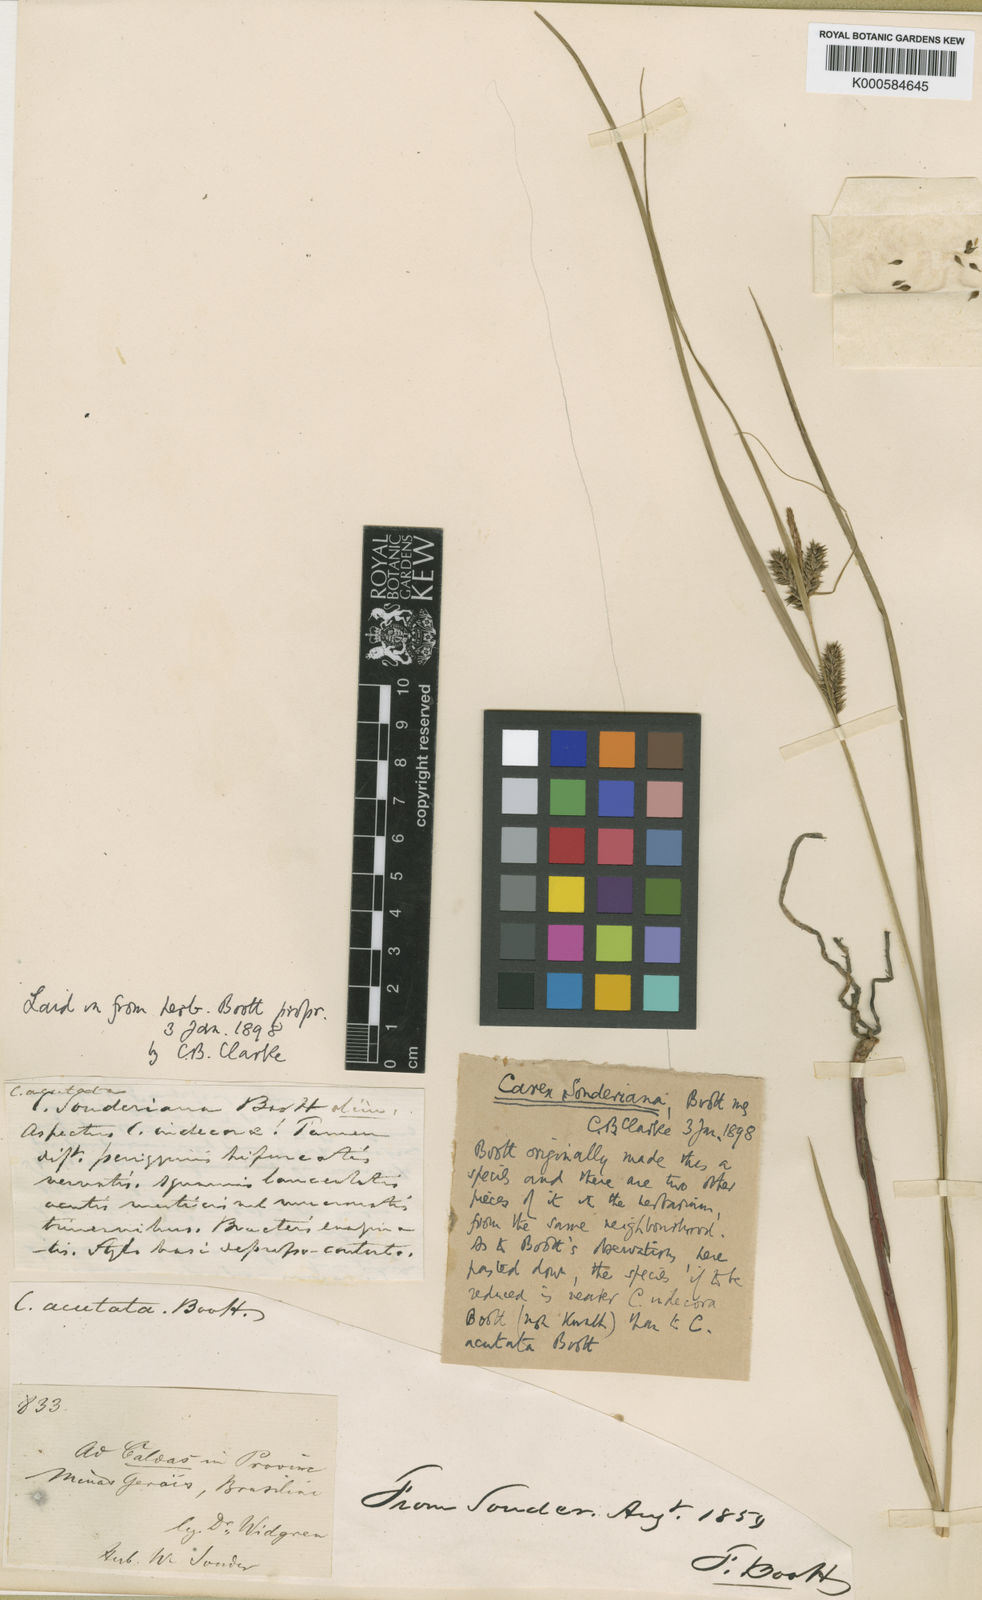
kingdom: Plantae
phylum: Tracheophyta
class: Liliopsida
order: Poales
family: Cyperaceae
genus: Carex
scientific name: Carex purpureovaginata
